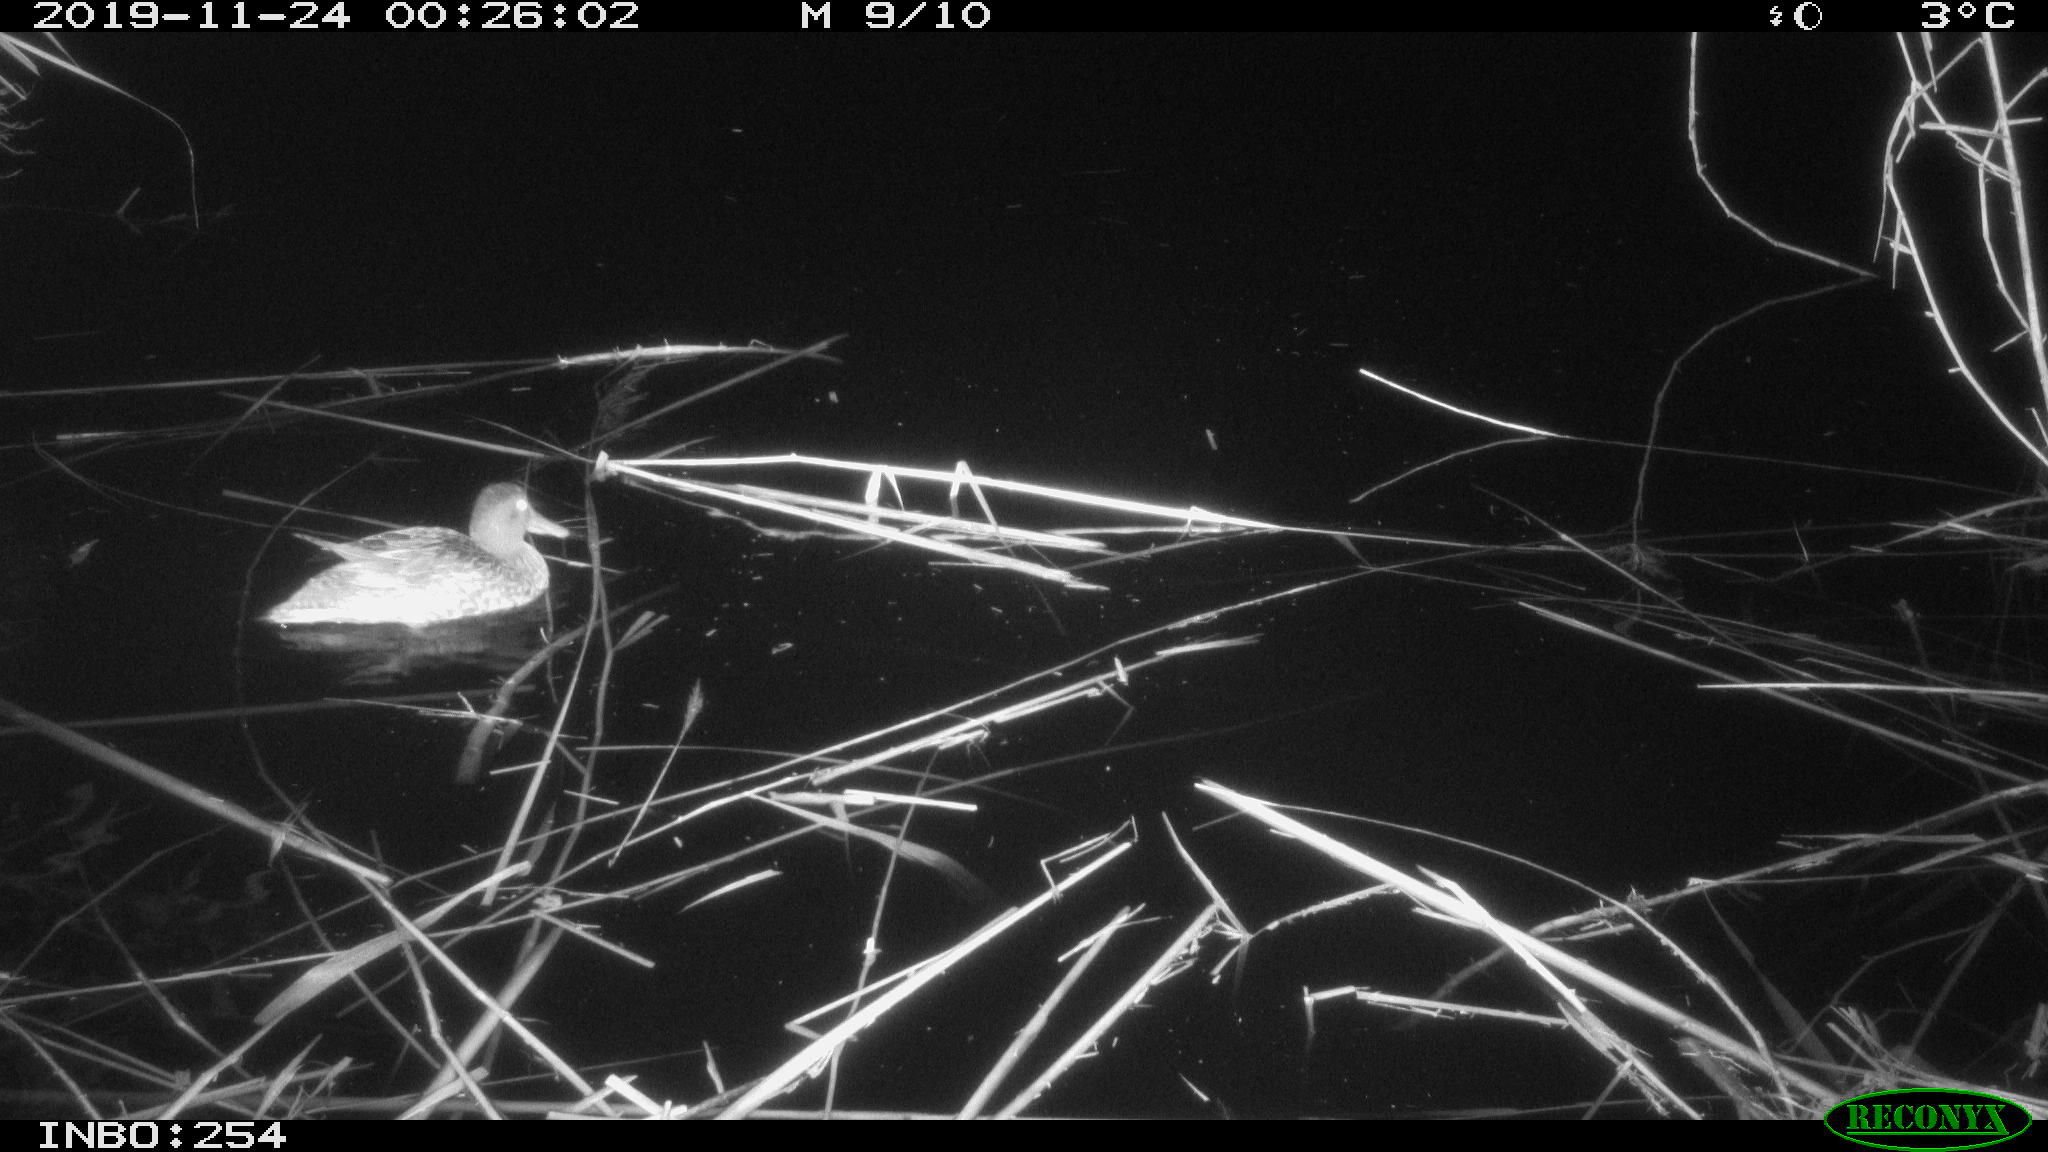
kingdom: Animalia
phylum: Chordata
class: Aves
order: Anseriformes
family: Anatidae
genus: Anas
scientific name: Anas platyrhynchos
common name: Mallard
